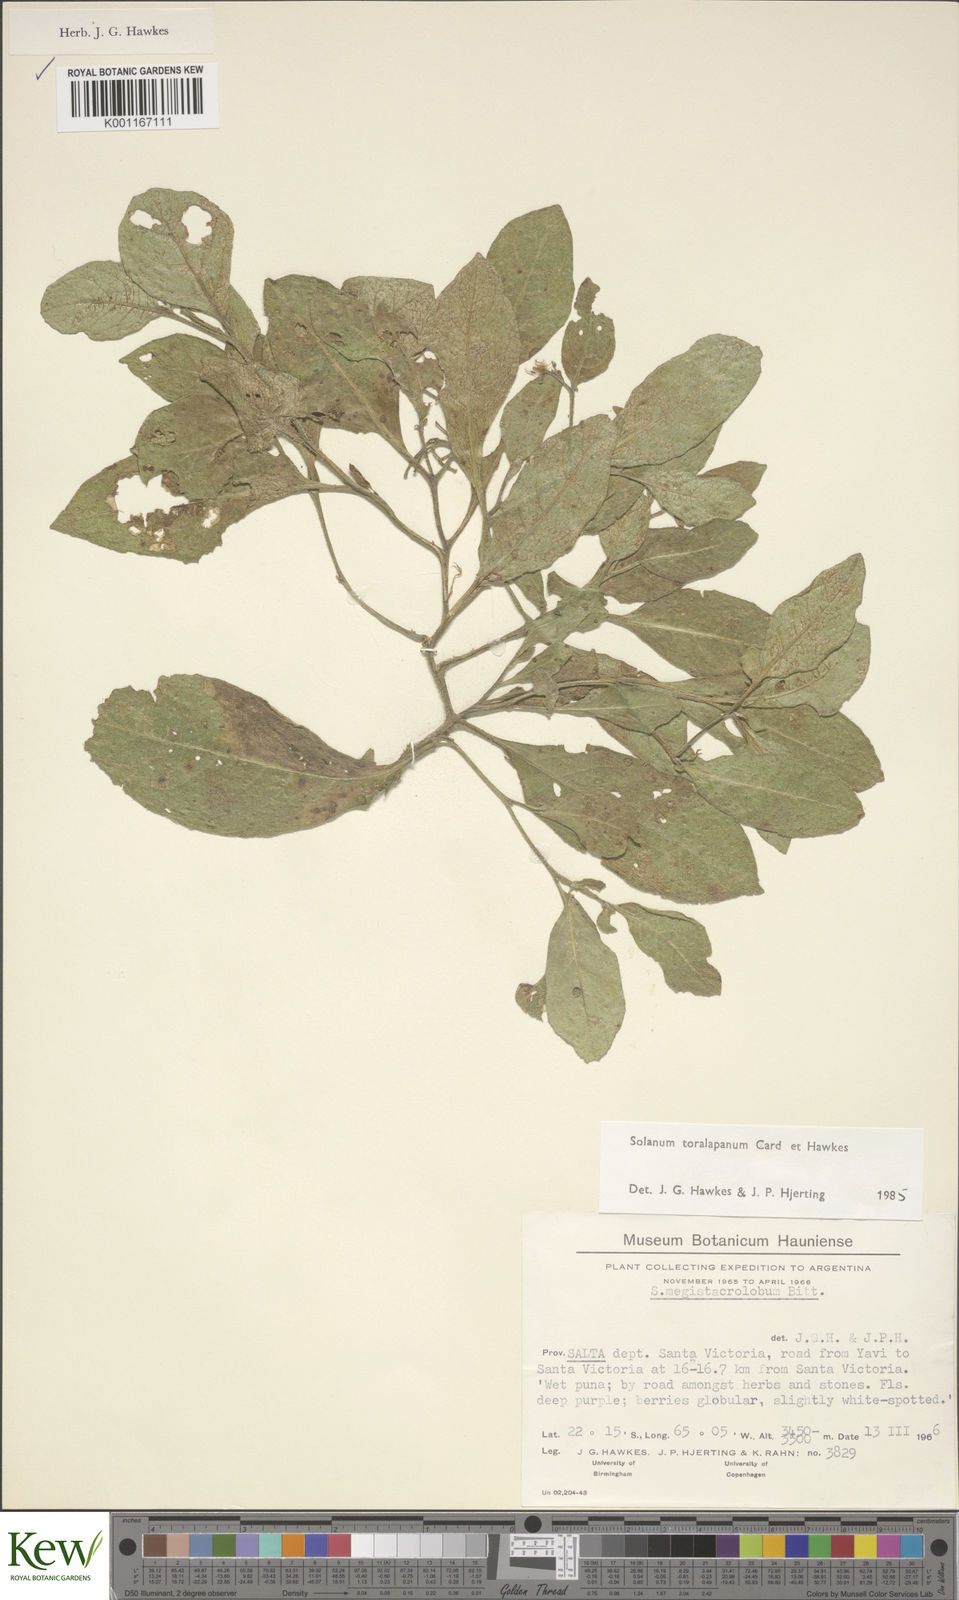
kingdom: Plantae
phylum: Tracheophyta
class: Magnoliopsida
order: Solanales
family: Solanaceae
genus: Solanum
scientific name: Solanum
